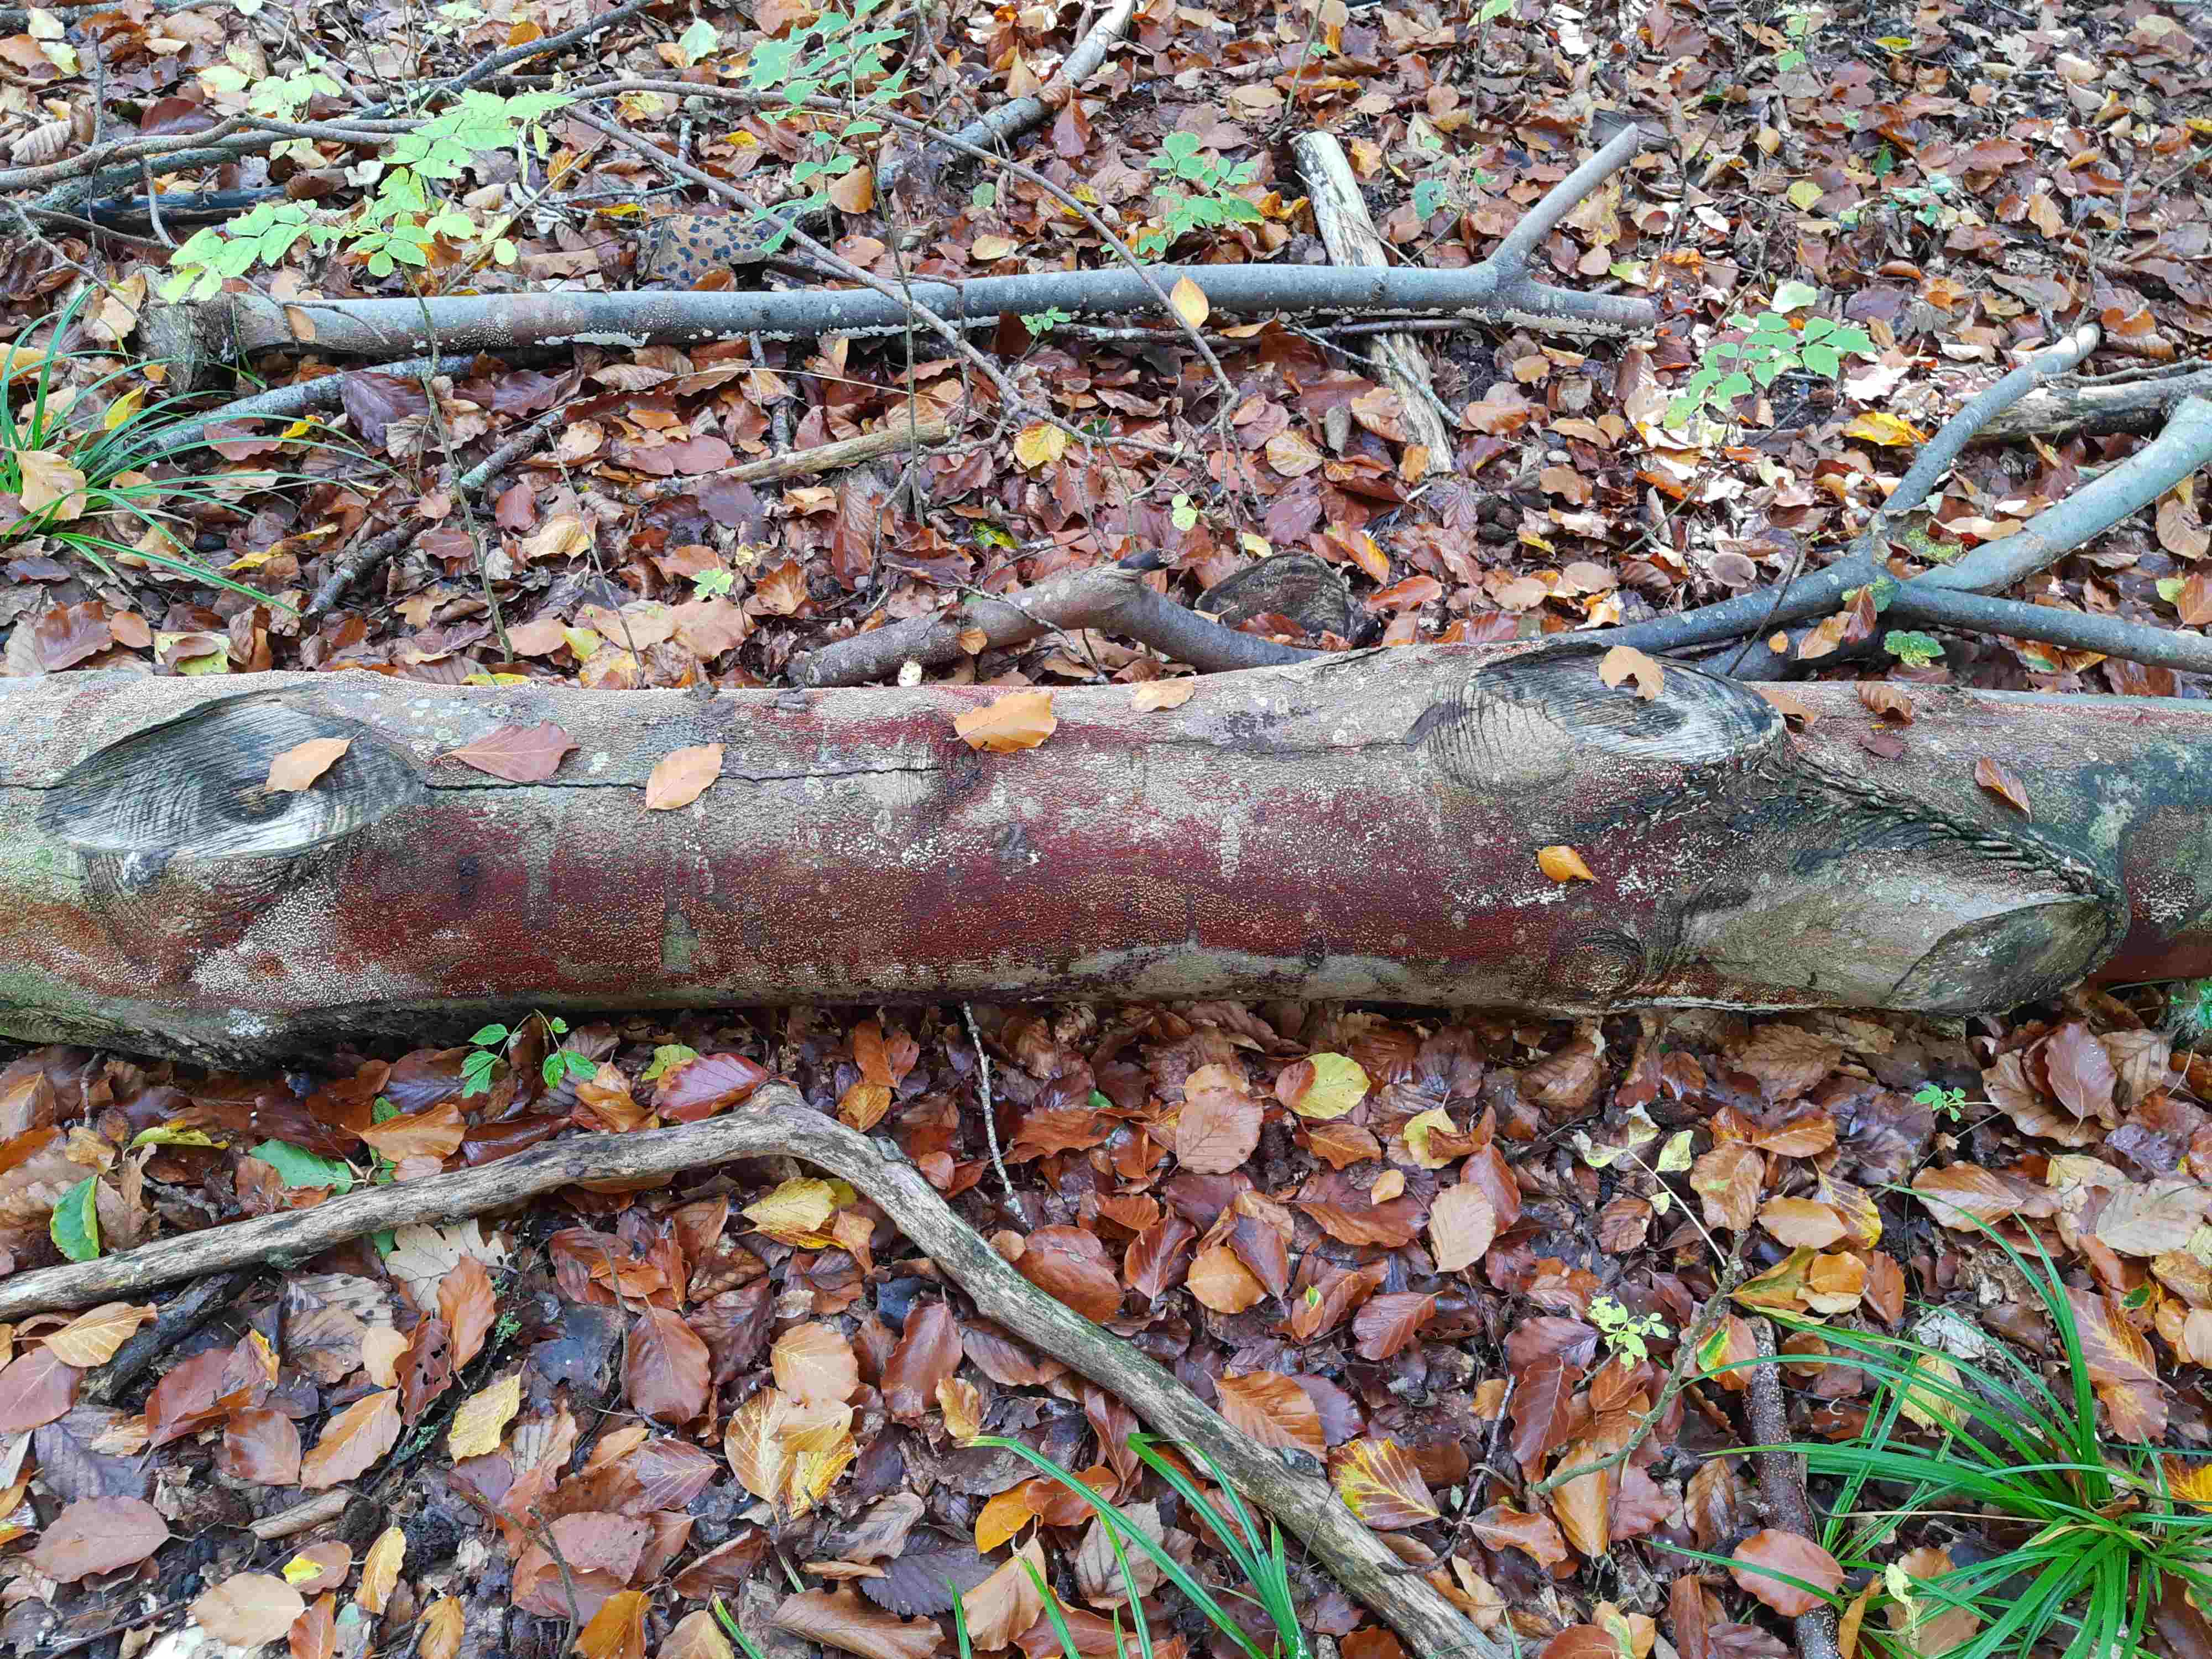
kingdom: Fungi
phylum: Ascomycota
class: Sordariomycetes
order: Hypocreales
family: Nectriaceae
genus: Nectria
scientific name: Nectria cinnabarina
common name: almindelig cinnobersvamp
